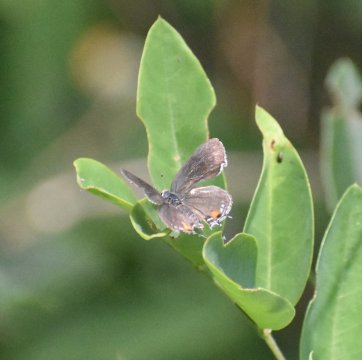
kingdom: Animalia
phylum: Arthropoda
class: Insecta
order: Lepidoptera
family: Lycaenidae
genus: Strymon
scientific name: Strymon melinus
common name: Gray Hairstreak
